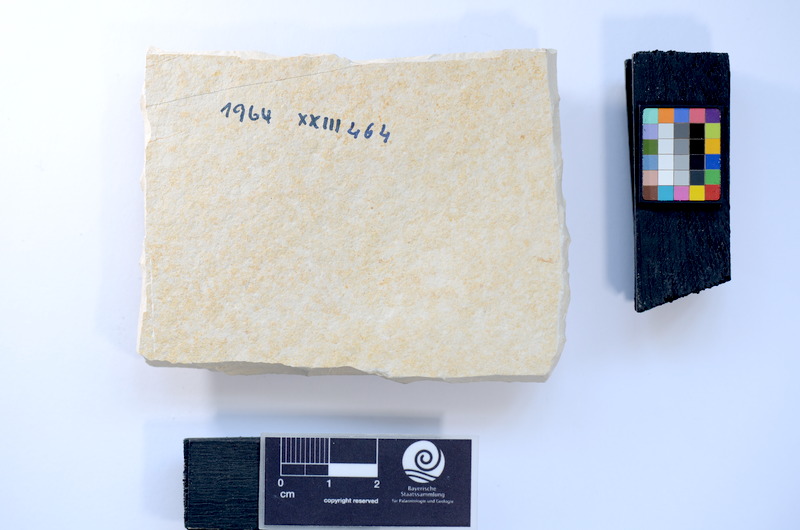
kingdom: Animalia
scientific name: Animalia
